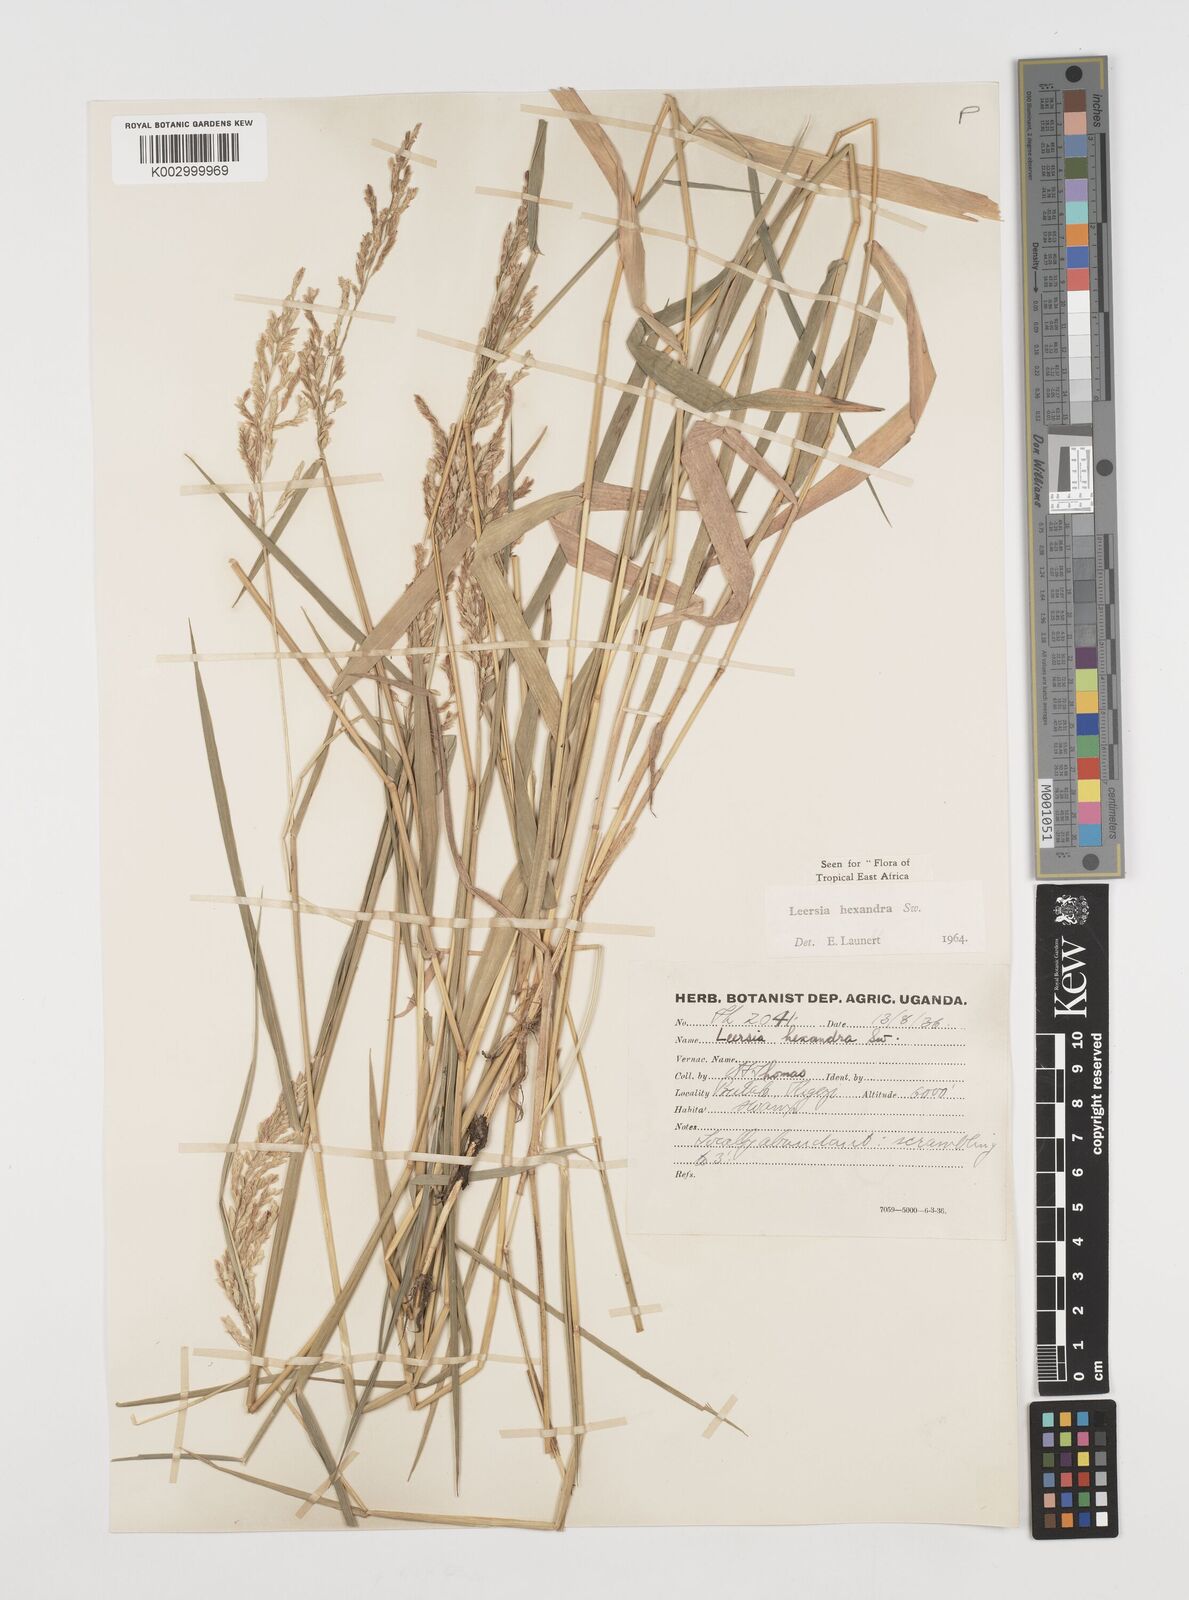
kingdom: Plantae
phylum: Tracheophyta
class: Liliopsida
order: Poales
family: Poaceae
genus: Leersia
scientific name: Leersia hexandra
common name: Southern cut grass
